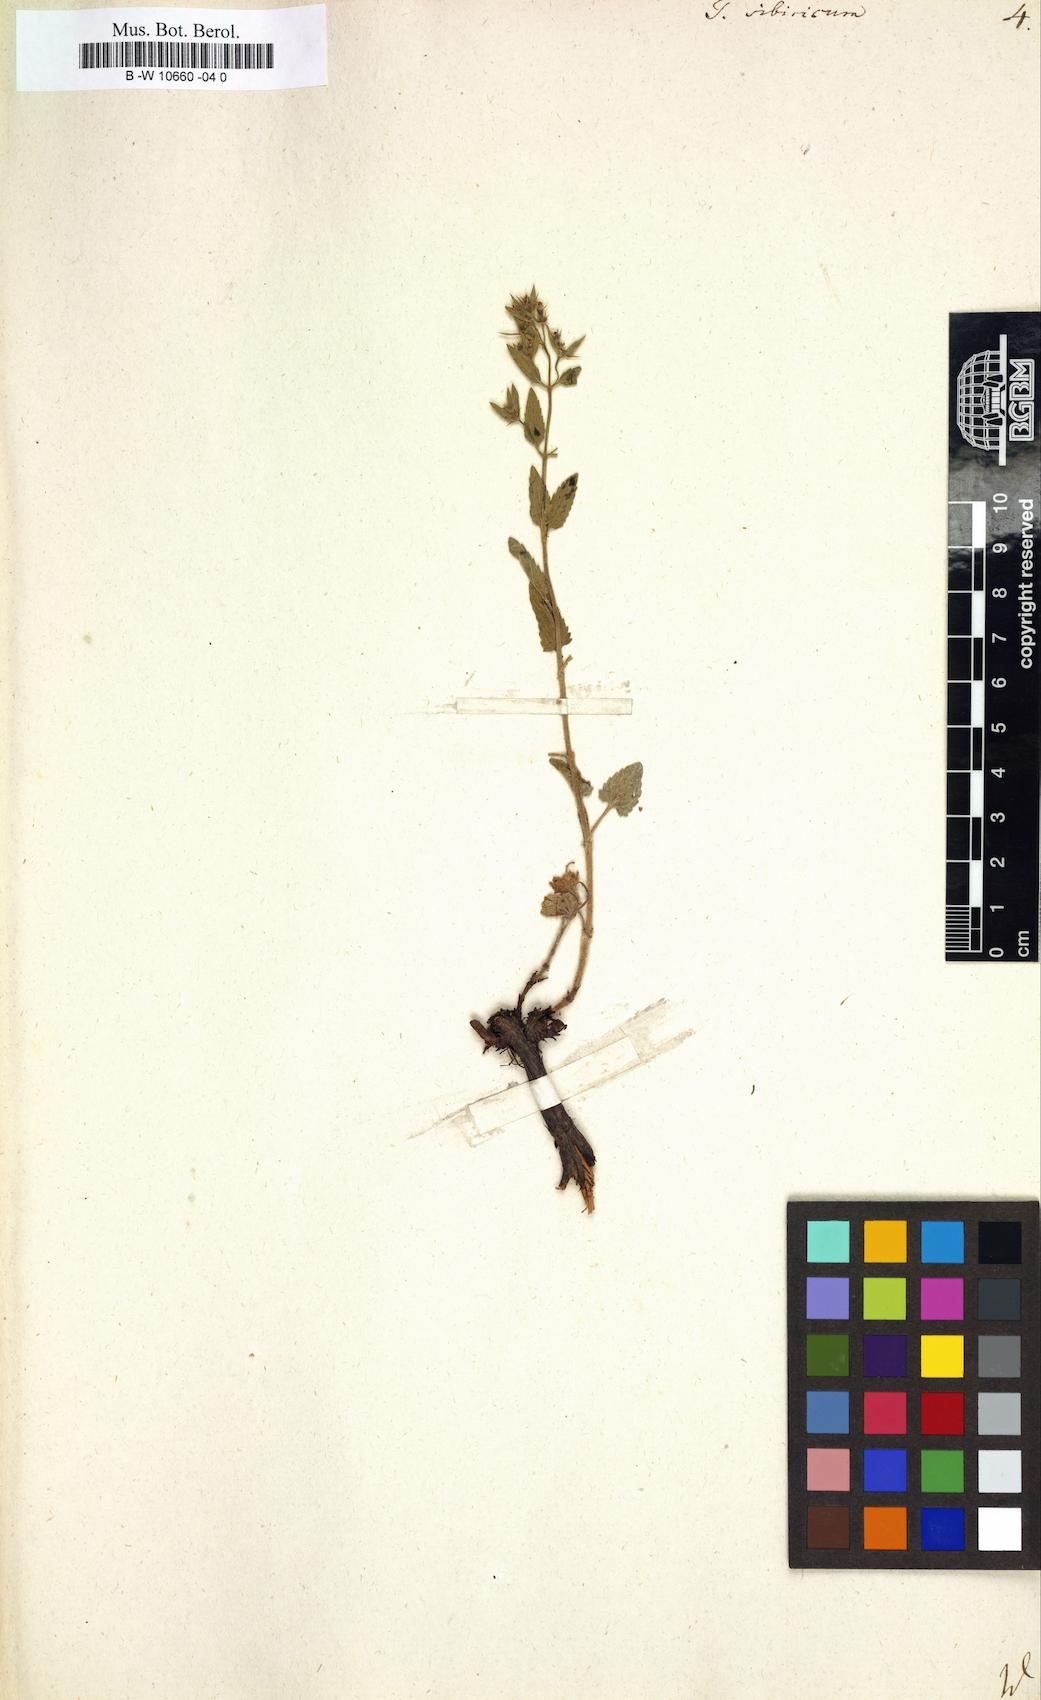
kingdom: Plantae
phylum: Tracheophyta
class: Magnoliopsida
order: Lamiales
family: Lamiaceae
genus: Teucrium
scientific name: Teucrium sibiricum
